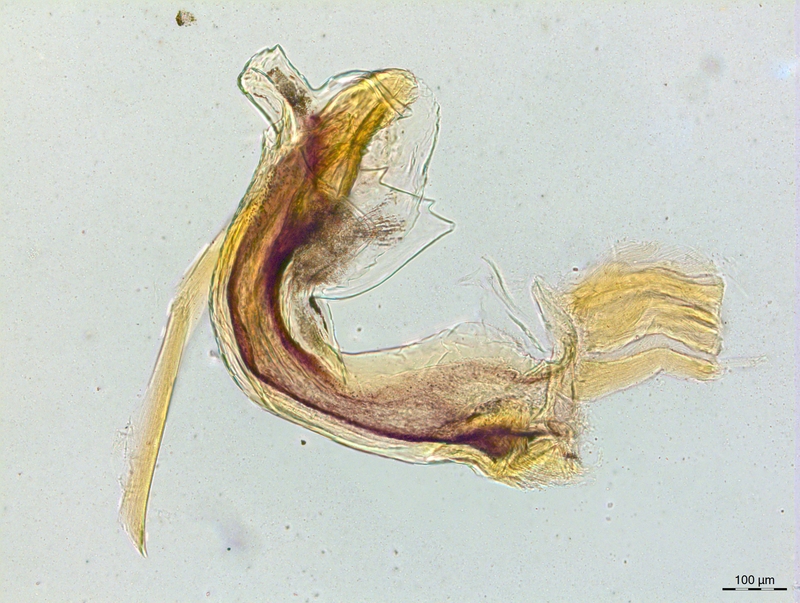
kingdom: Animalia
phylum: Arthropoda
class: Diplopoda
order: Chordeumatida
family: Craspedosomatidae
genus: Craspedosoma
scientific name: Craspedosoma taurinorum
